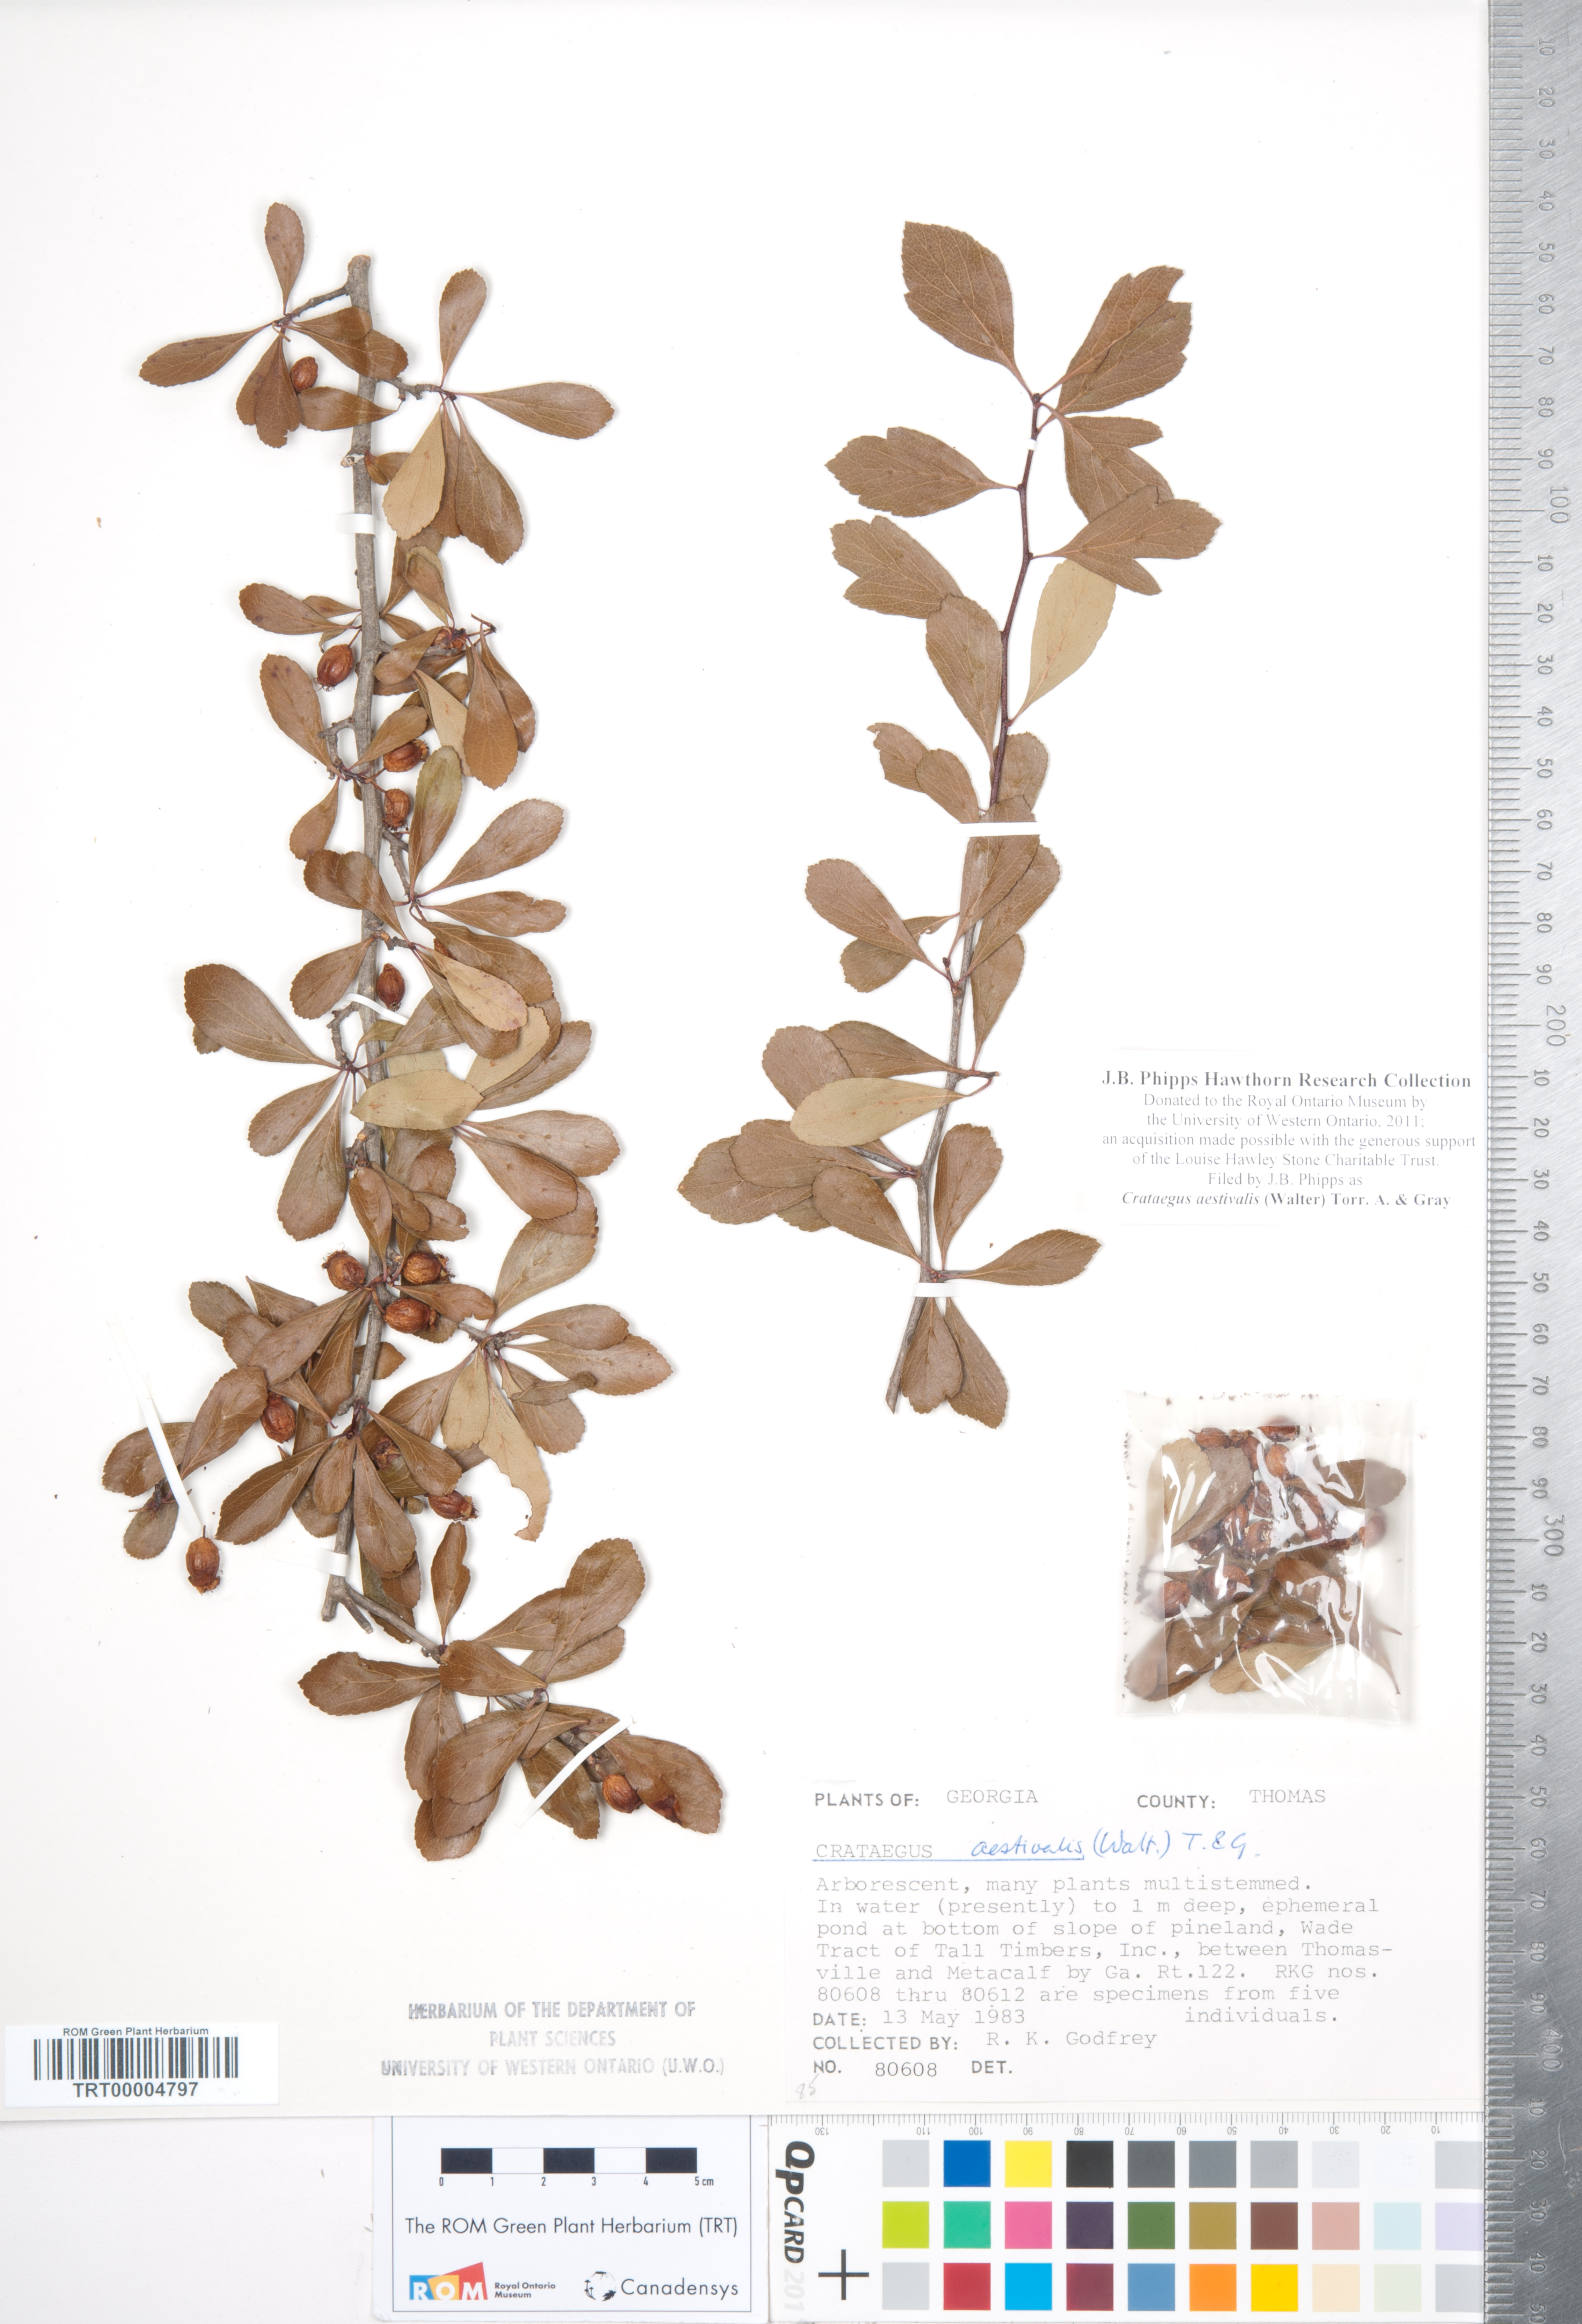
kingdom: Plantae
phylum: Tracheophyta
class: Magnoliopsida
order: Rosales
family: Rosaceae
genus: Crataegus
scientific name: Crataegus aestivalis
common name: Mayhaw
